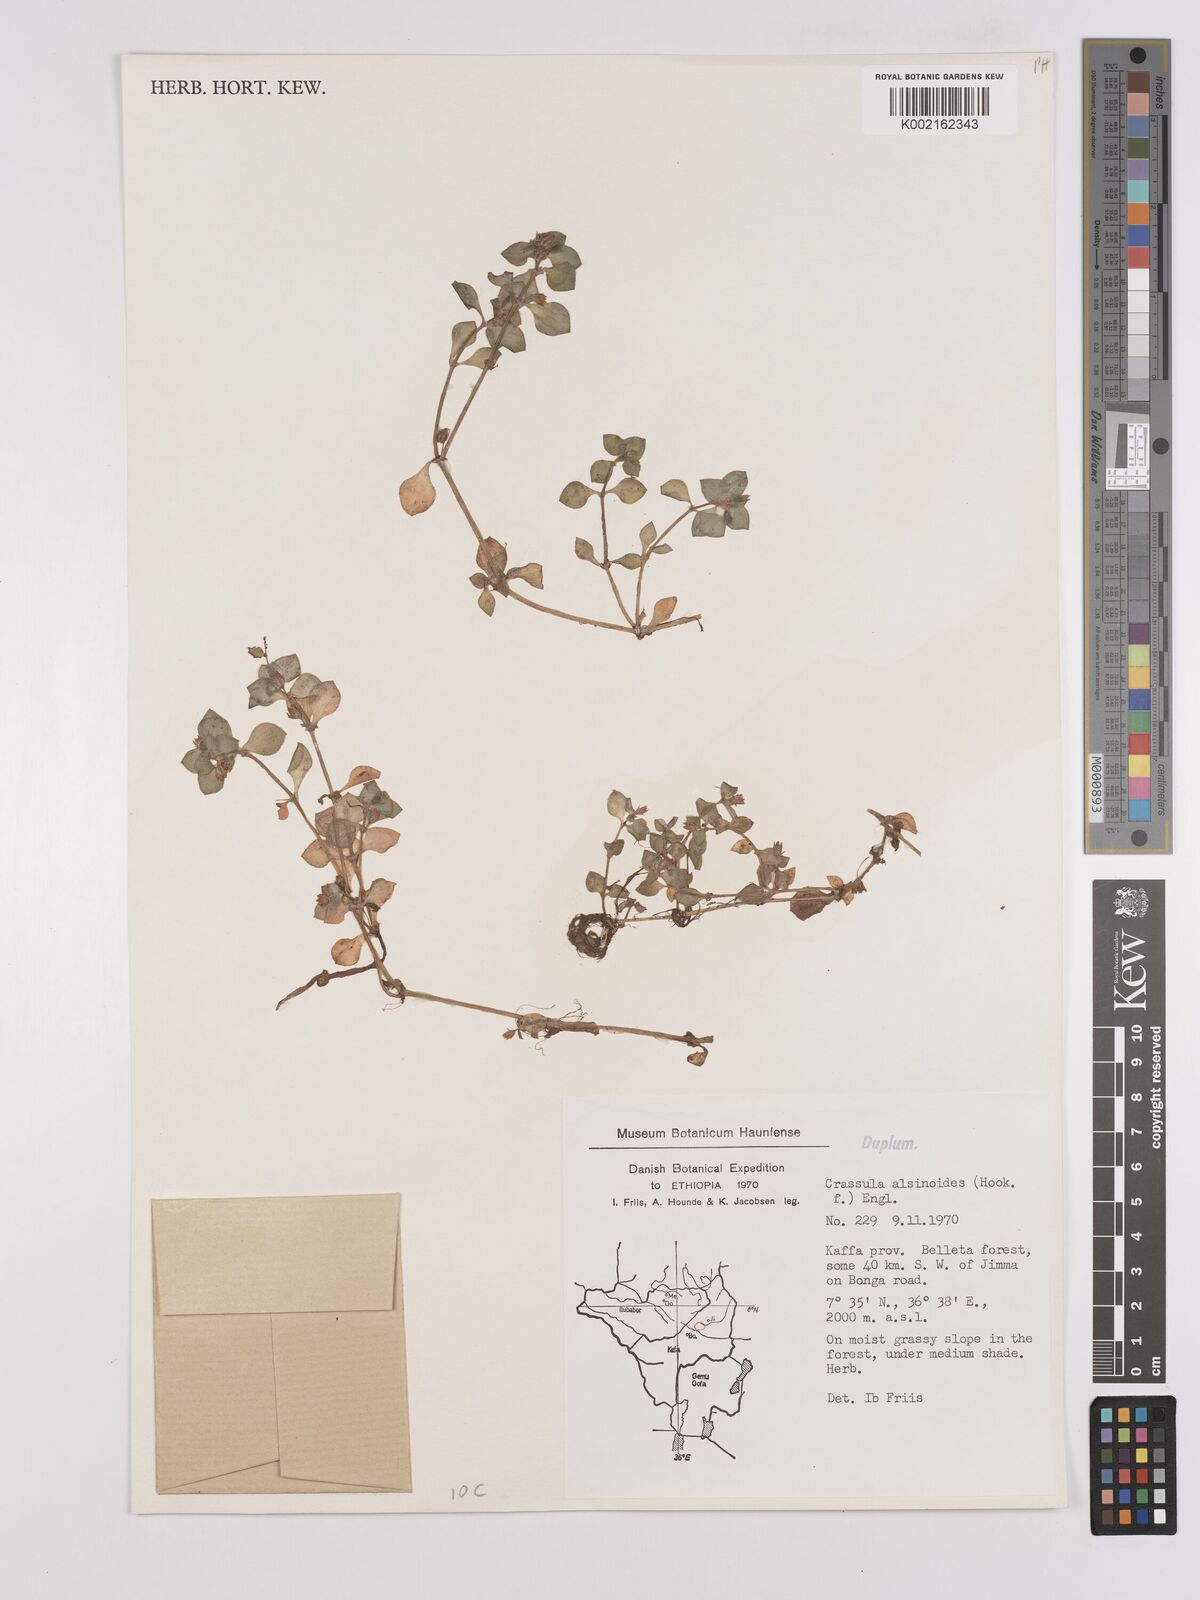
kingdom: Plantae
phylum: Tracheophyta
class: Magnoliopsida
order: Saxifragales
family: Crassulaceae
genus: Crassula
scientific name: Crassula alsinoides
